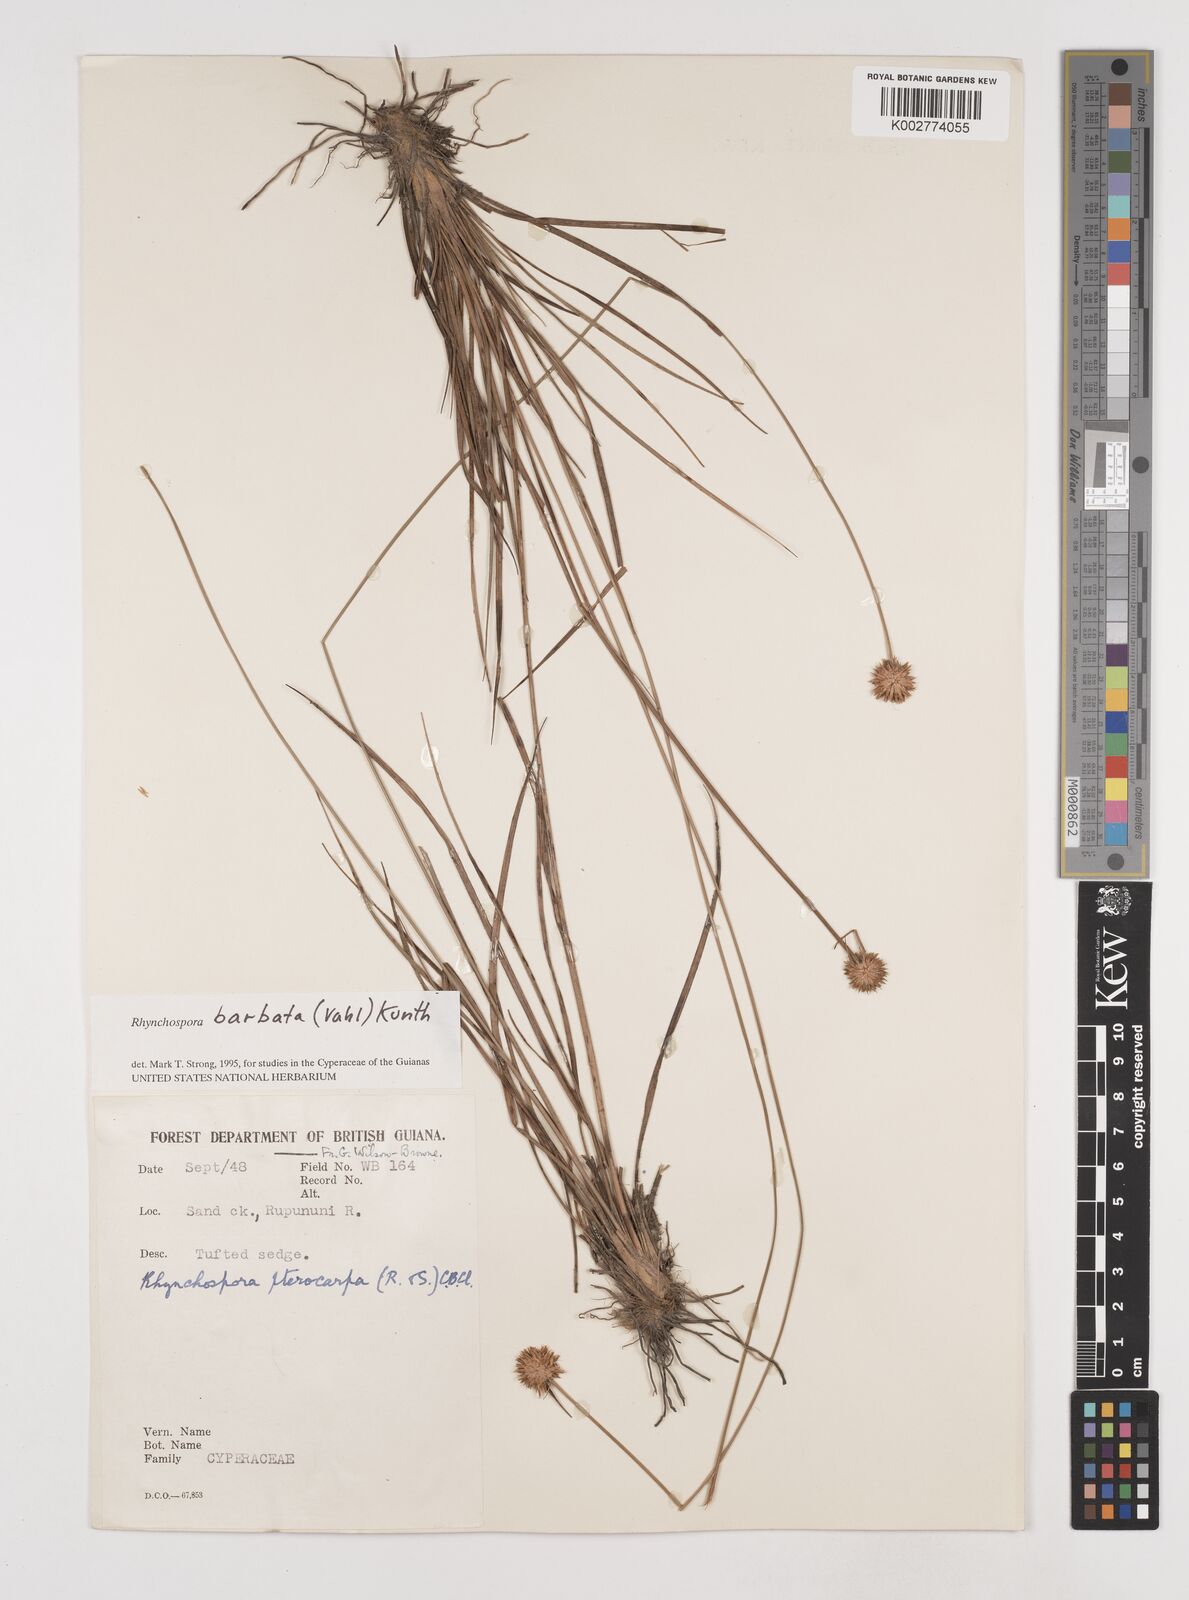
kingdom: Plantae
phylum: Tracheophyta
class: Liliopsida
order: Poales
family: Cyperaceae
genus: Rhynchospora
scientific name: Rhynchospora barbata
